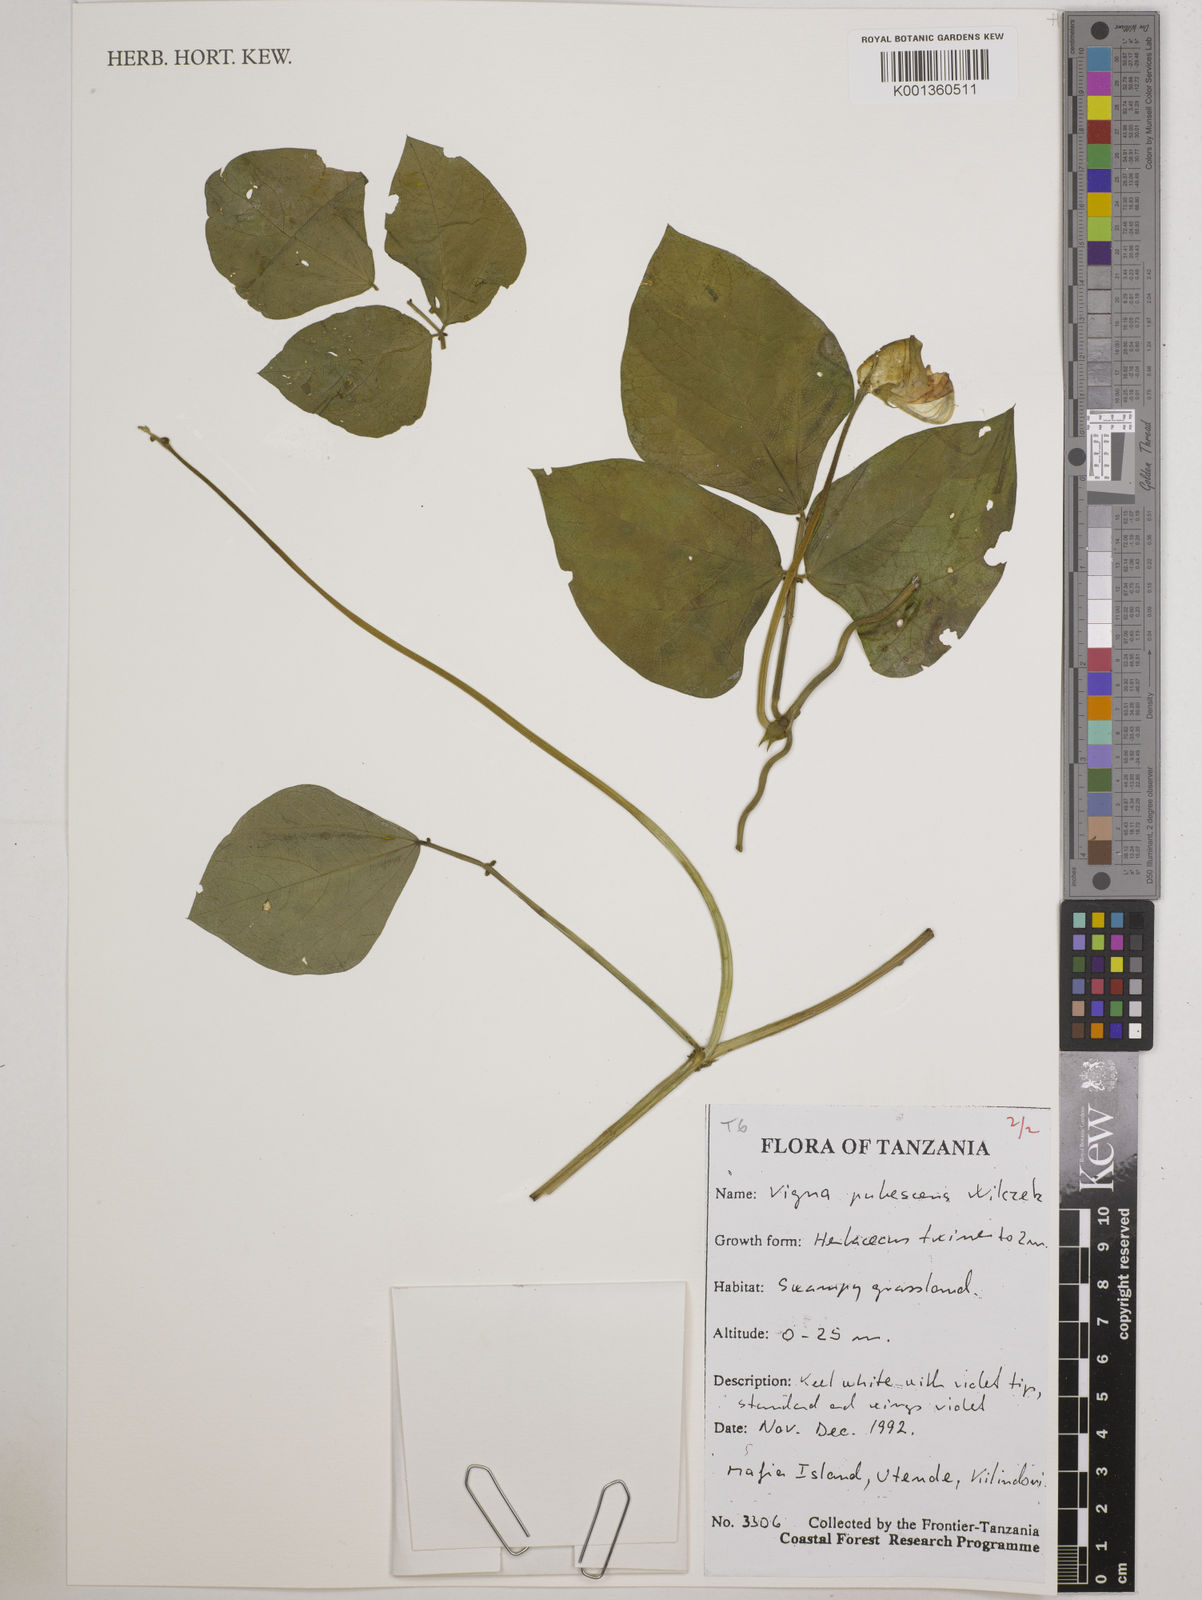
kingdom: Plantae
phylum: Tracheophyta
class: Magnoliopsida
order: Fabales
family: Fabaceae
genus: Vigna
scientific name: Vigna unguiculata
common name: Cowpea
